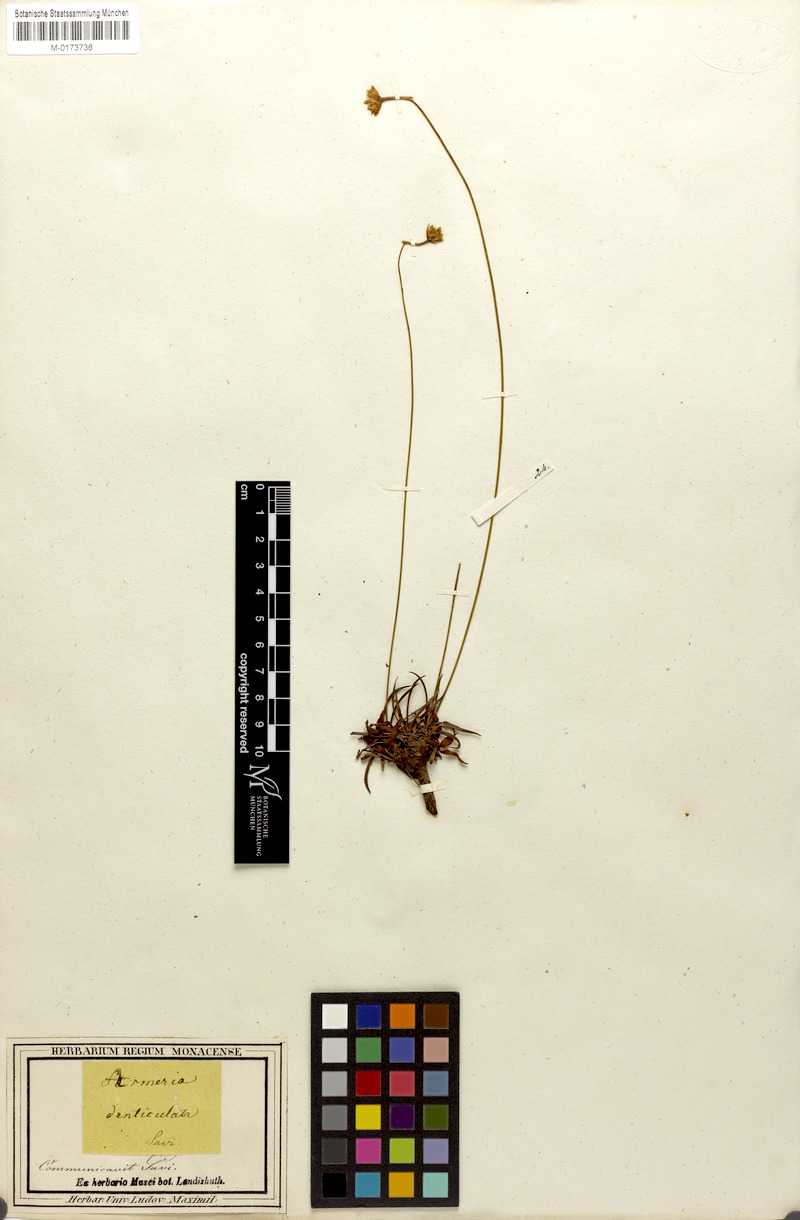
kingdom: Plantae
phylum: Tracheophyta
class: Magnoliopsida
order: Caryophyllales
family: Plumbaginaceae
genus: Armeria
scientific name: Armeria denticulata
